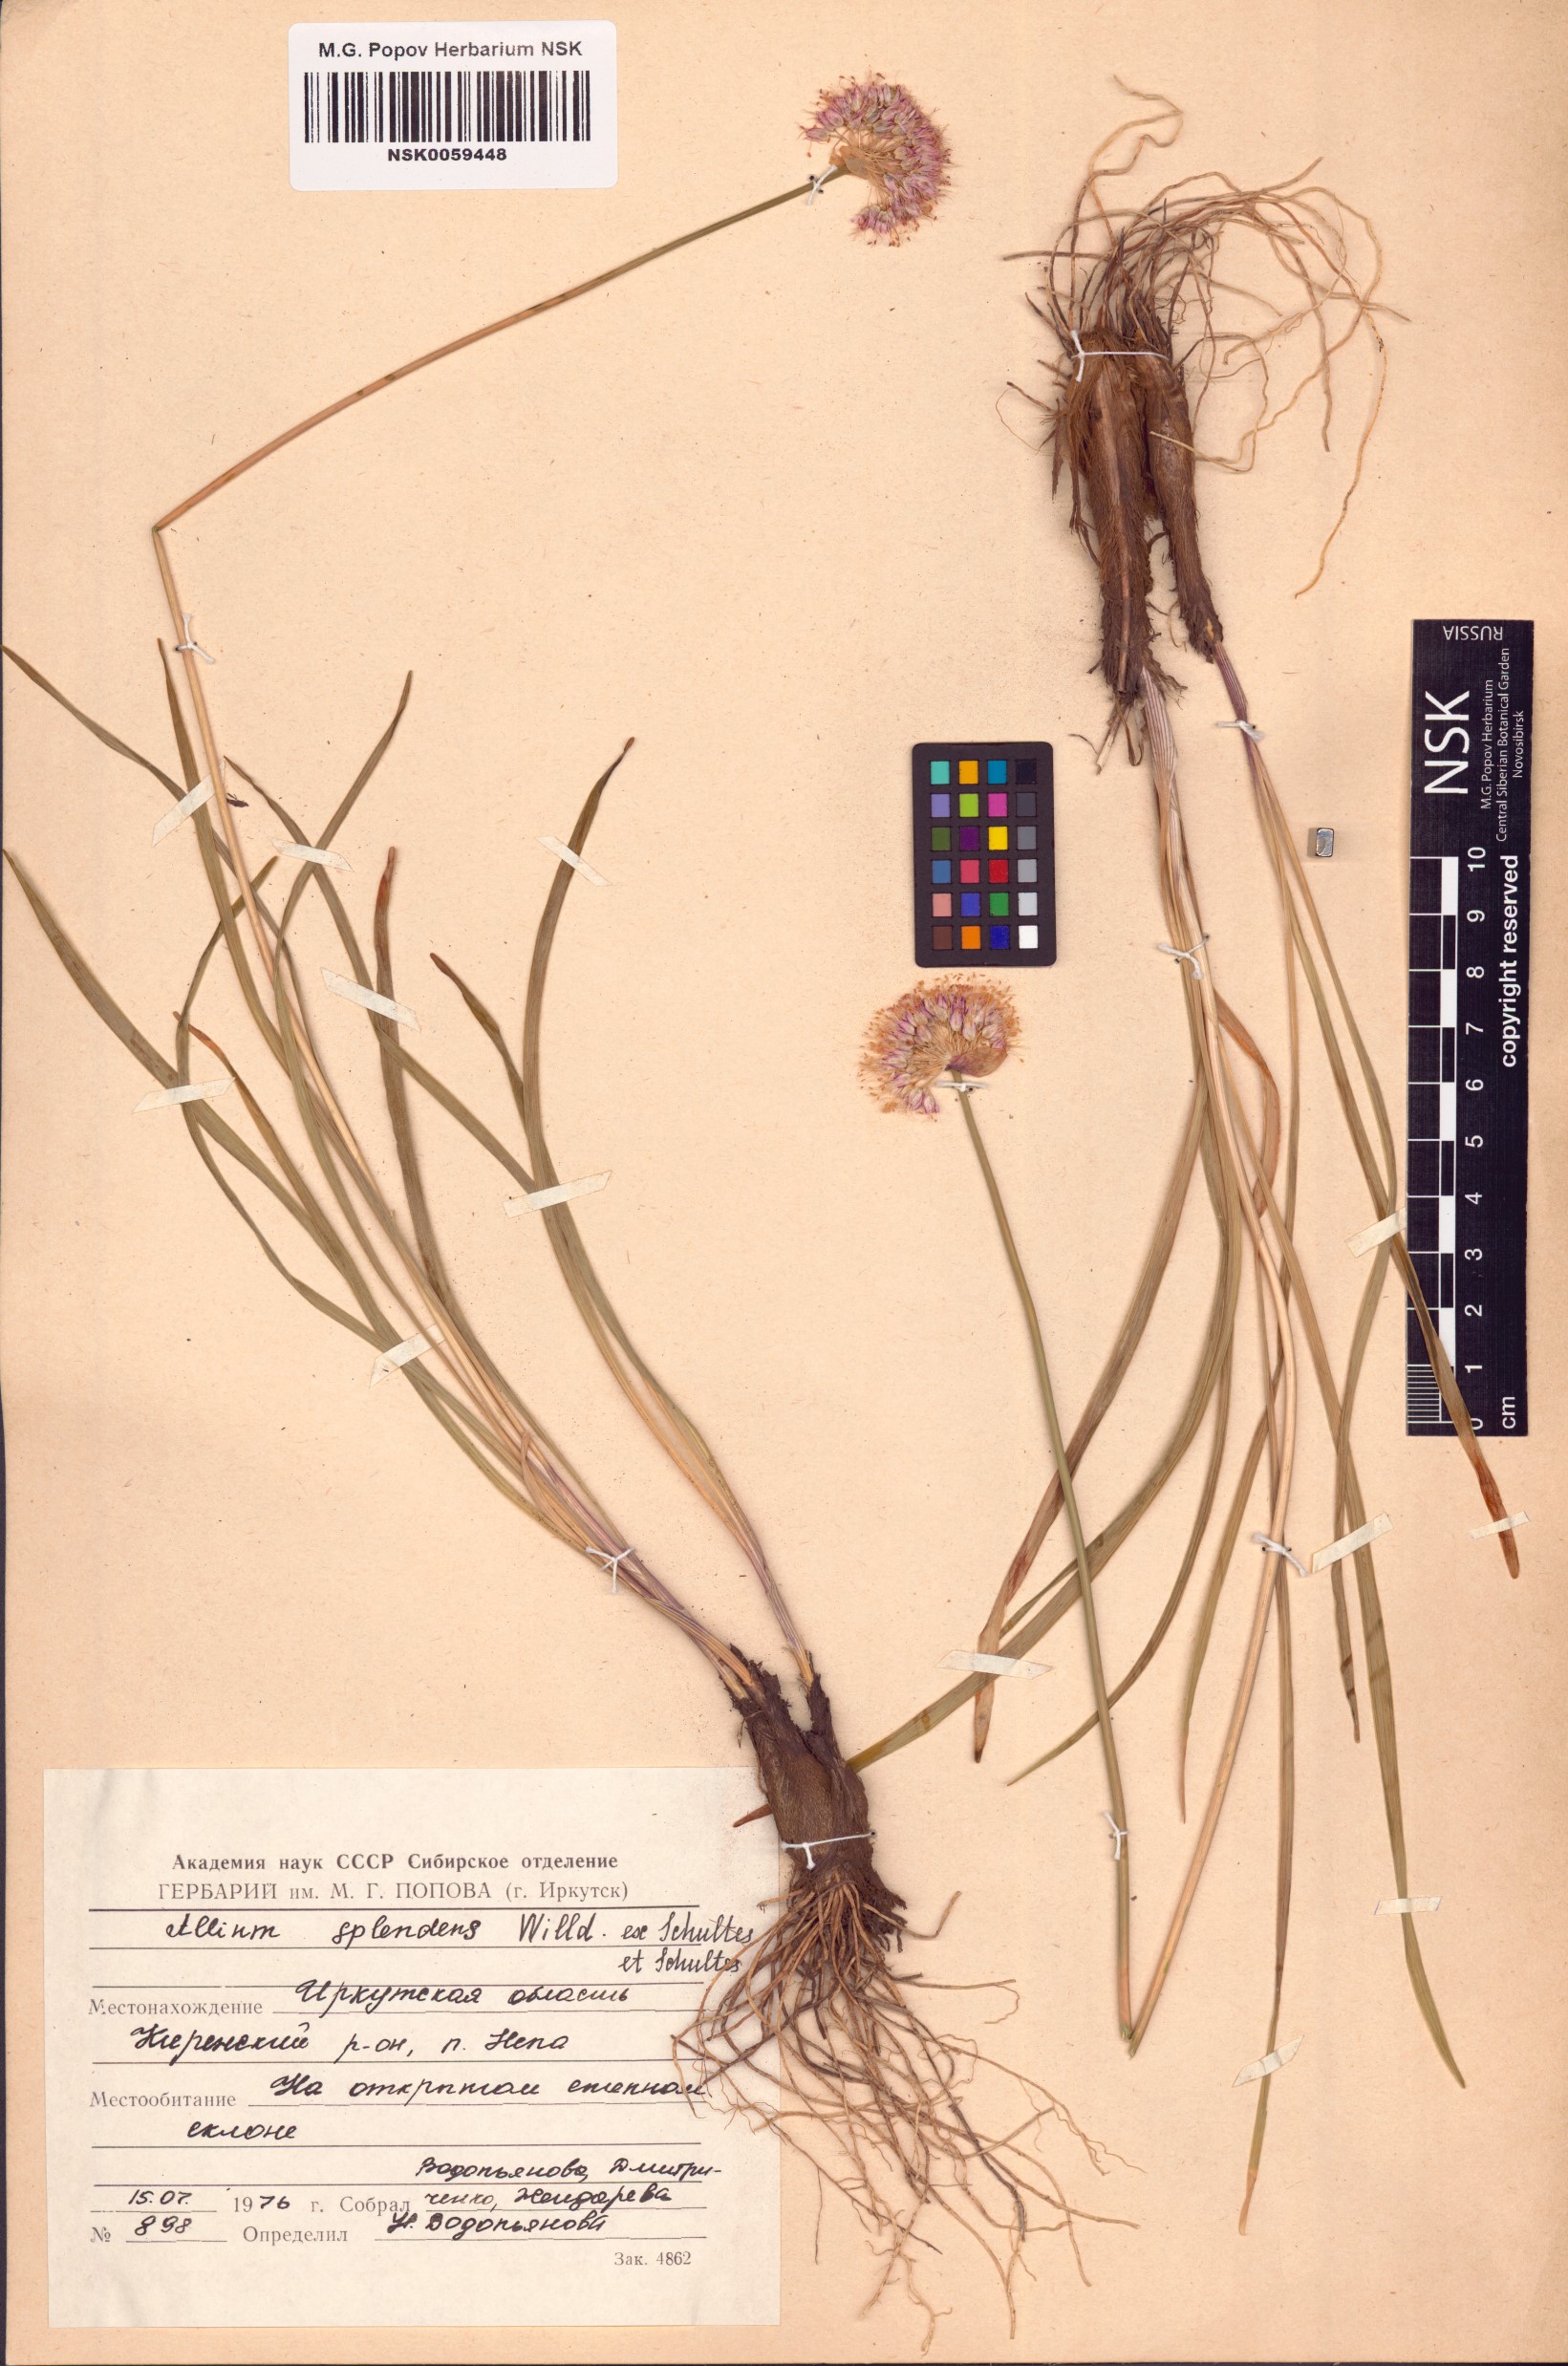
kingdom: Plantae
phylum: Tracheophyta
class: Liliopsida
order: Asparagales
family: Amaryllidaceae
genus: Allium
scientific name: Allium splendens
